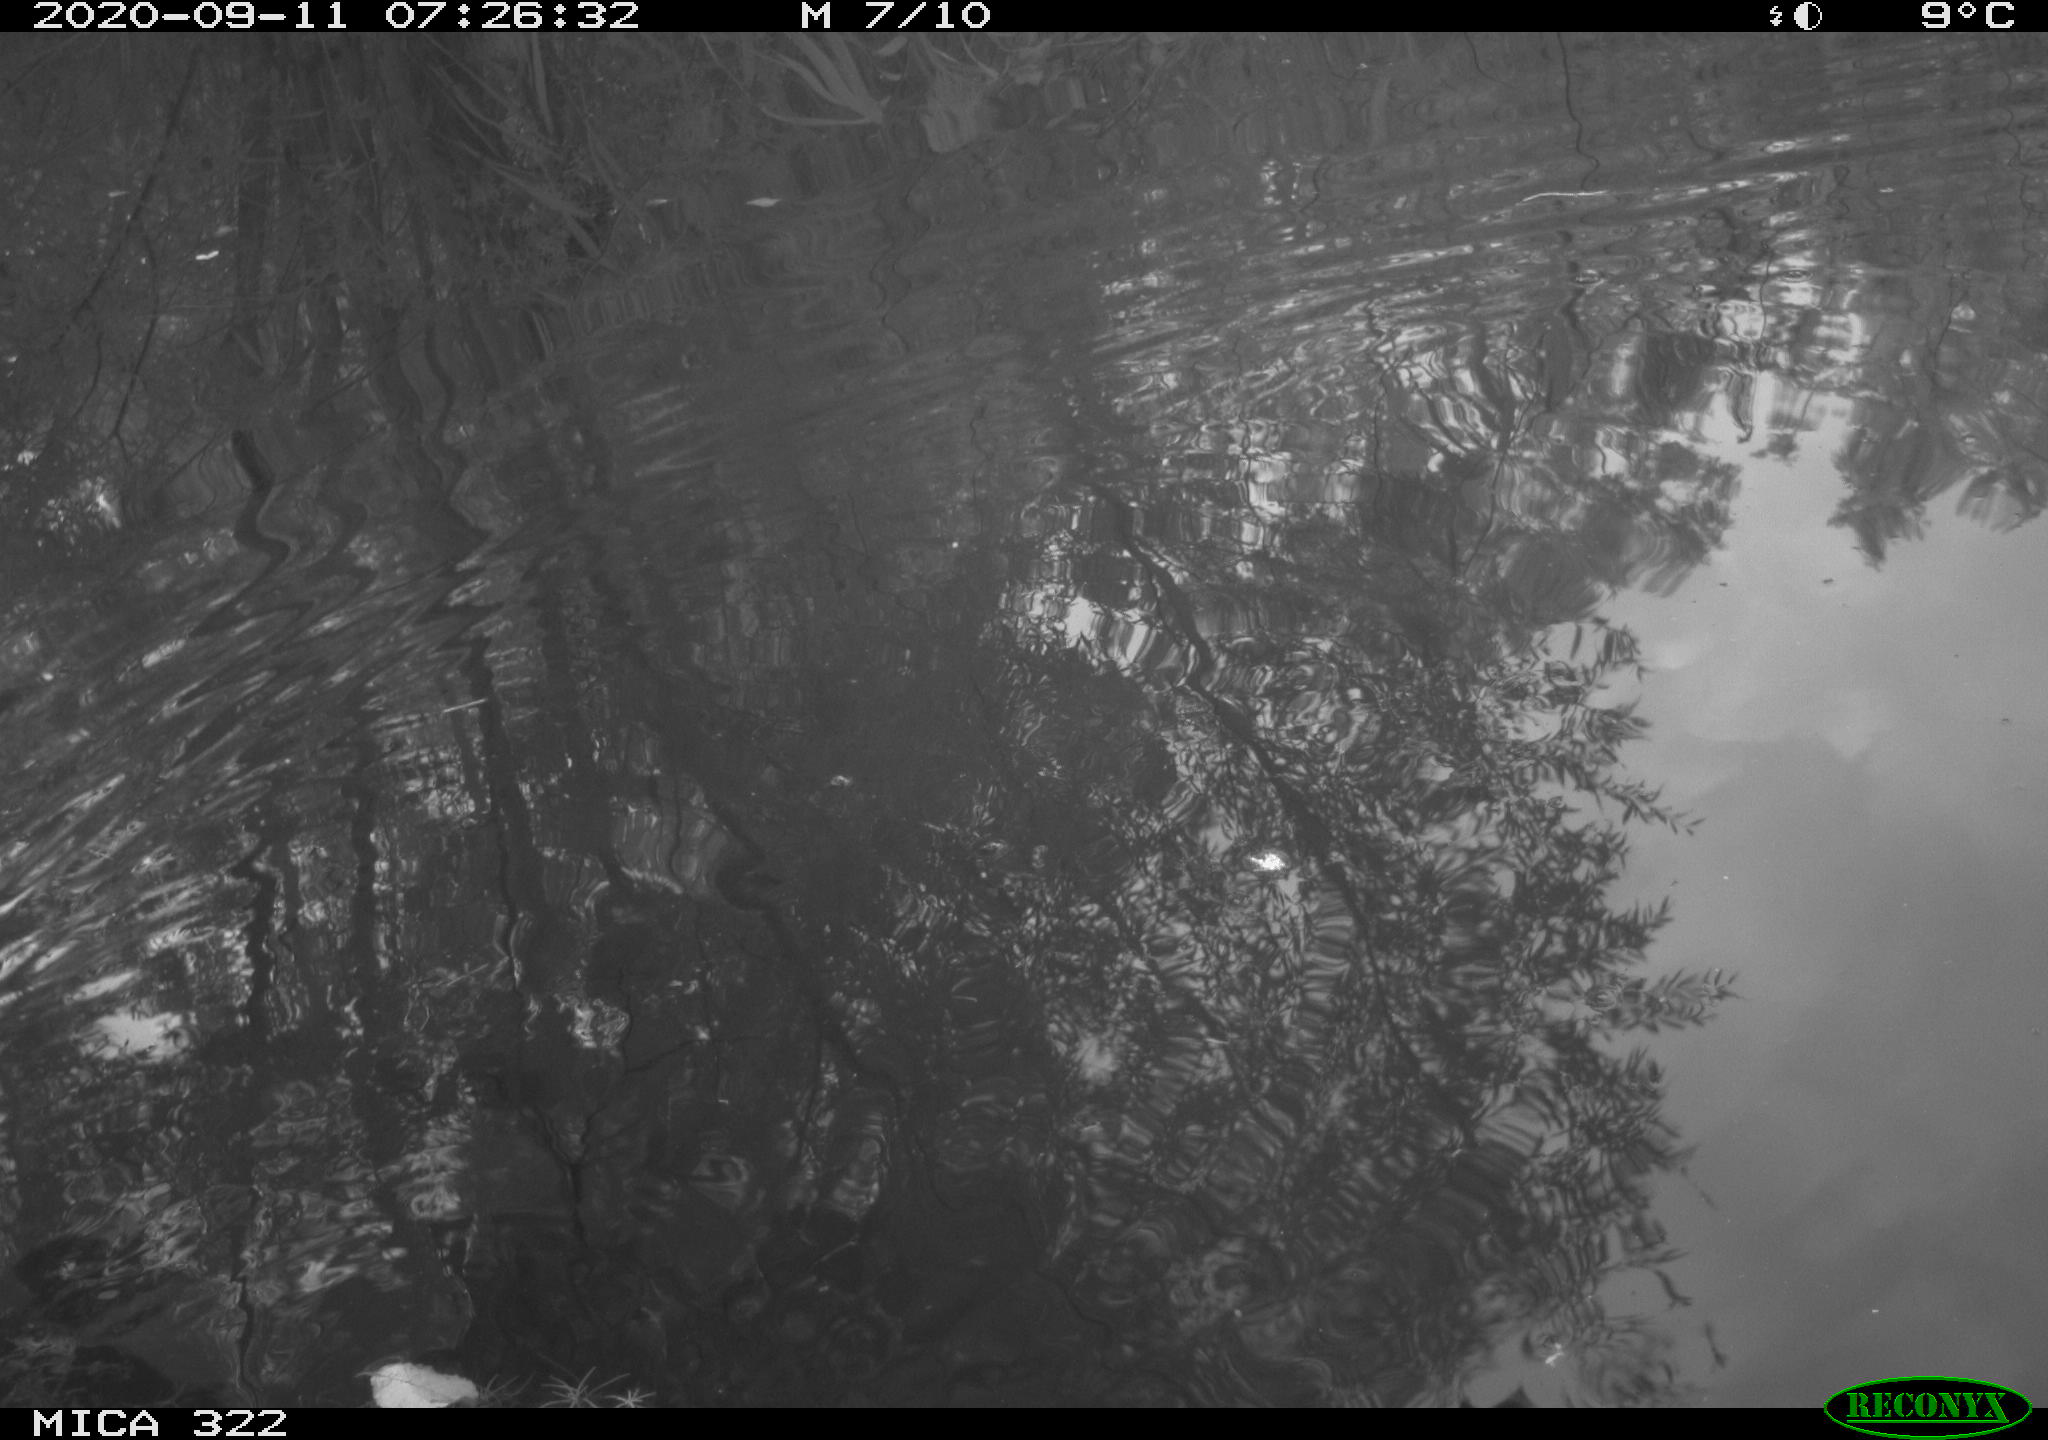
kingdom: Animalia
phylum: Chordata
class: Aves
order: Gruiformes
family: Rallidae
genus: Gallinula
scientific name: Gallinula chloropus
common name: Common moorhen
